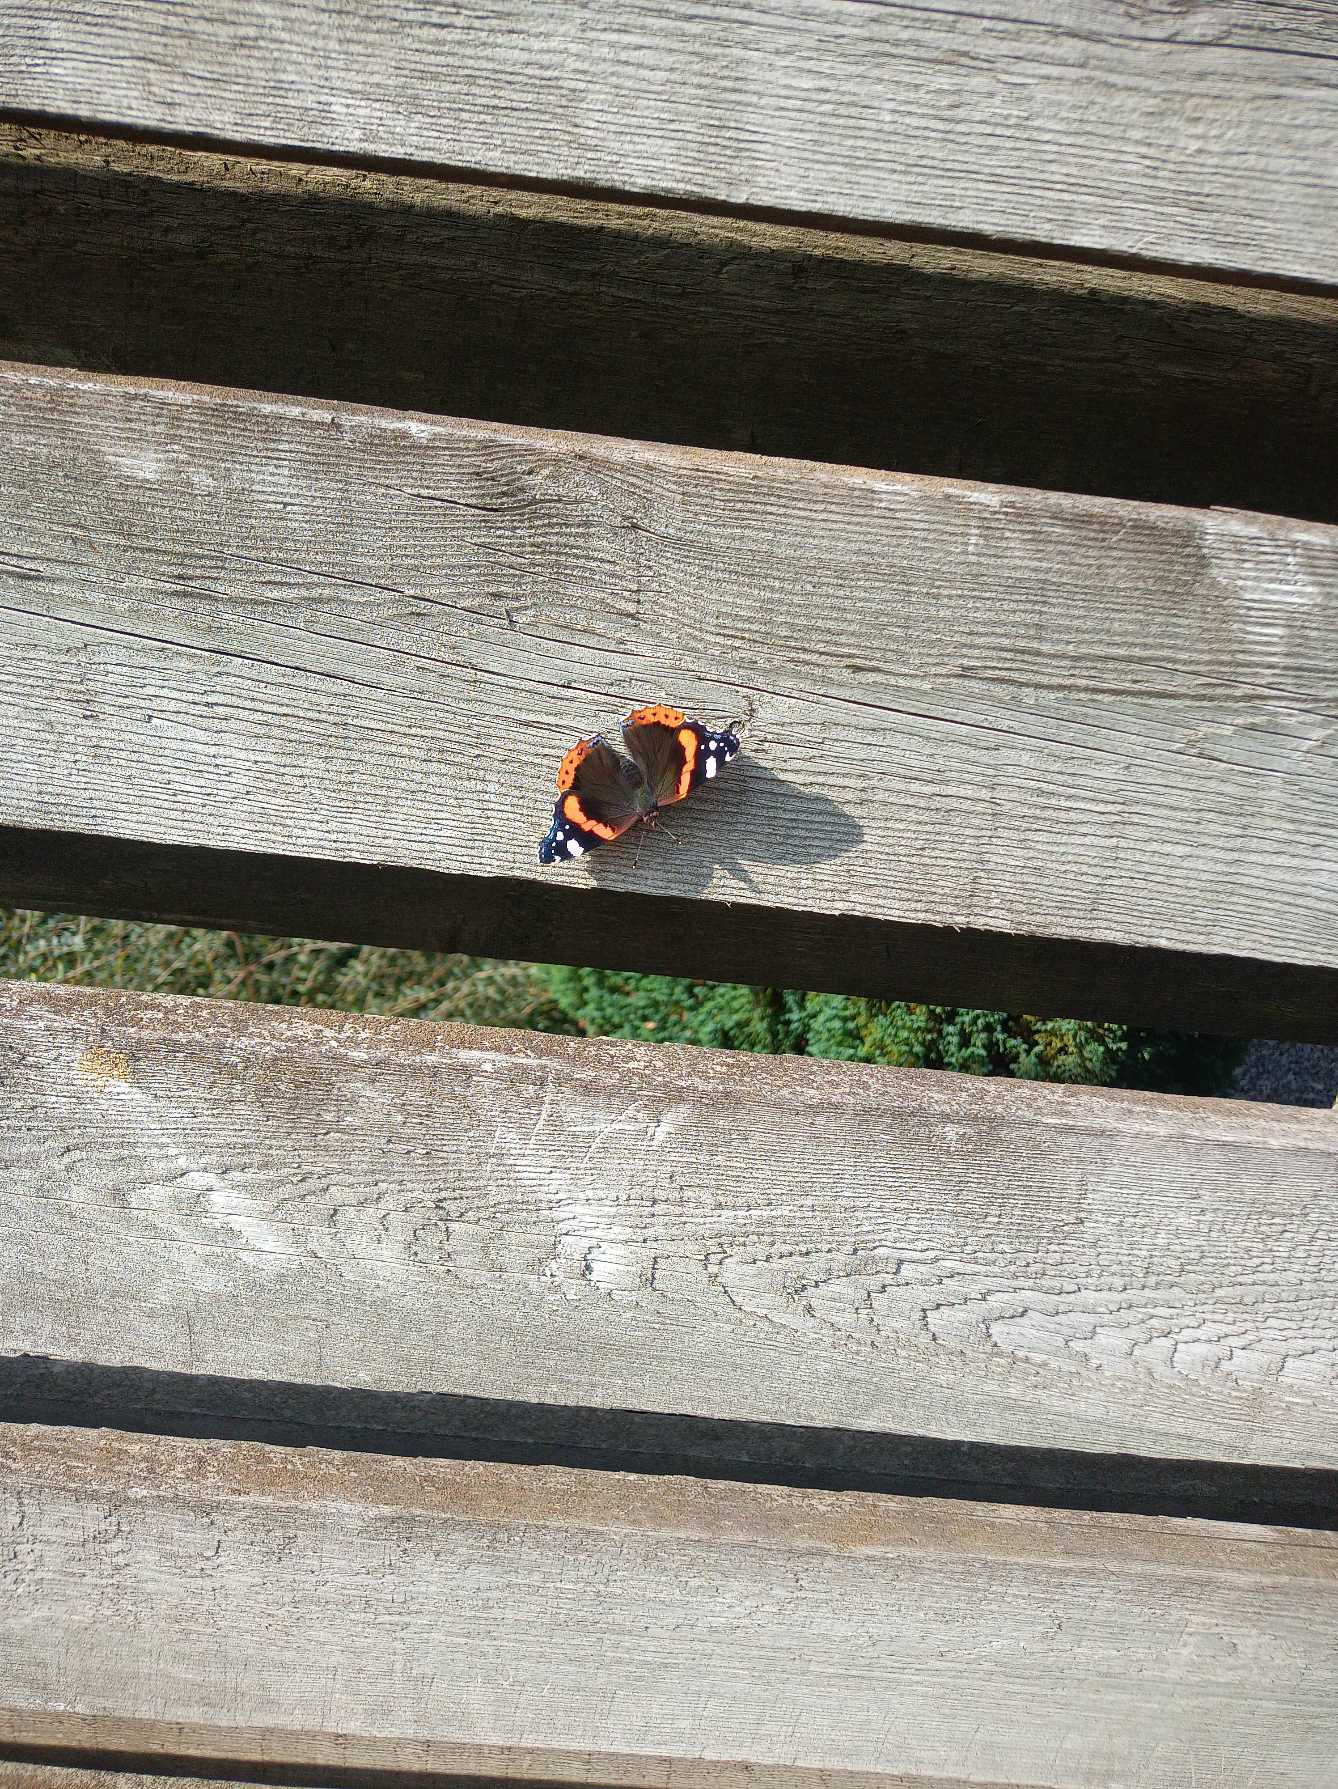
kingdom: Animalia
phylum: Arthropoda
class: Insecta
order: Lepidoptera
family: Nymphalidae
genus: Vanessa
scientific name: Vanessa atalanta
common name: Admiral
